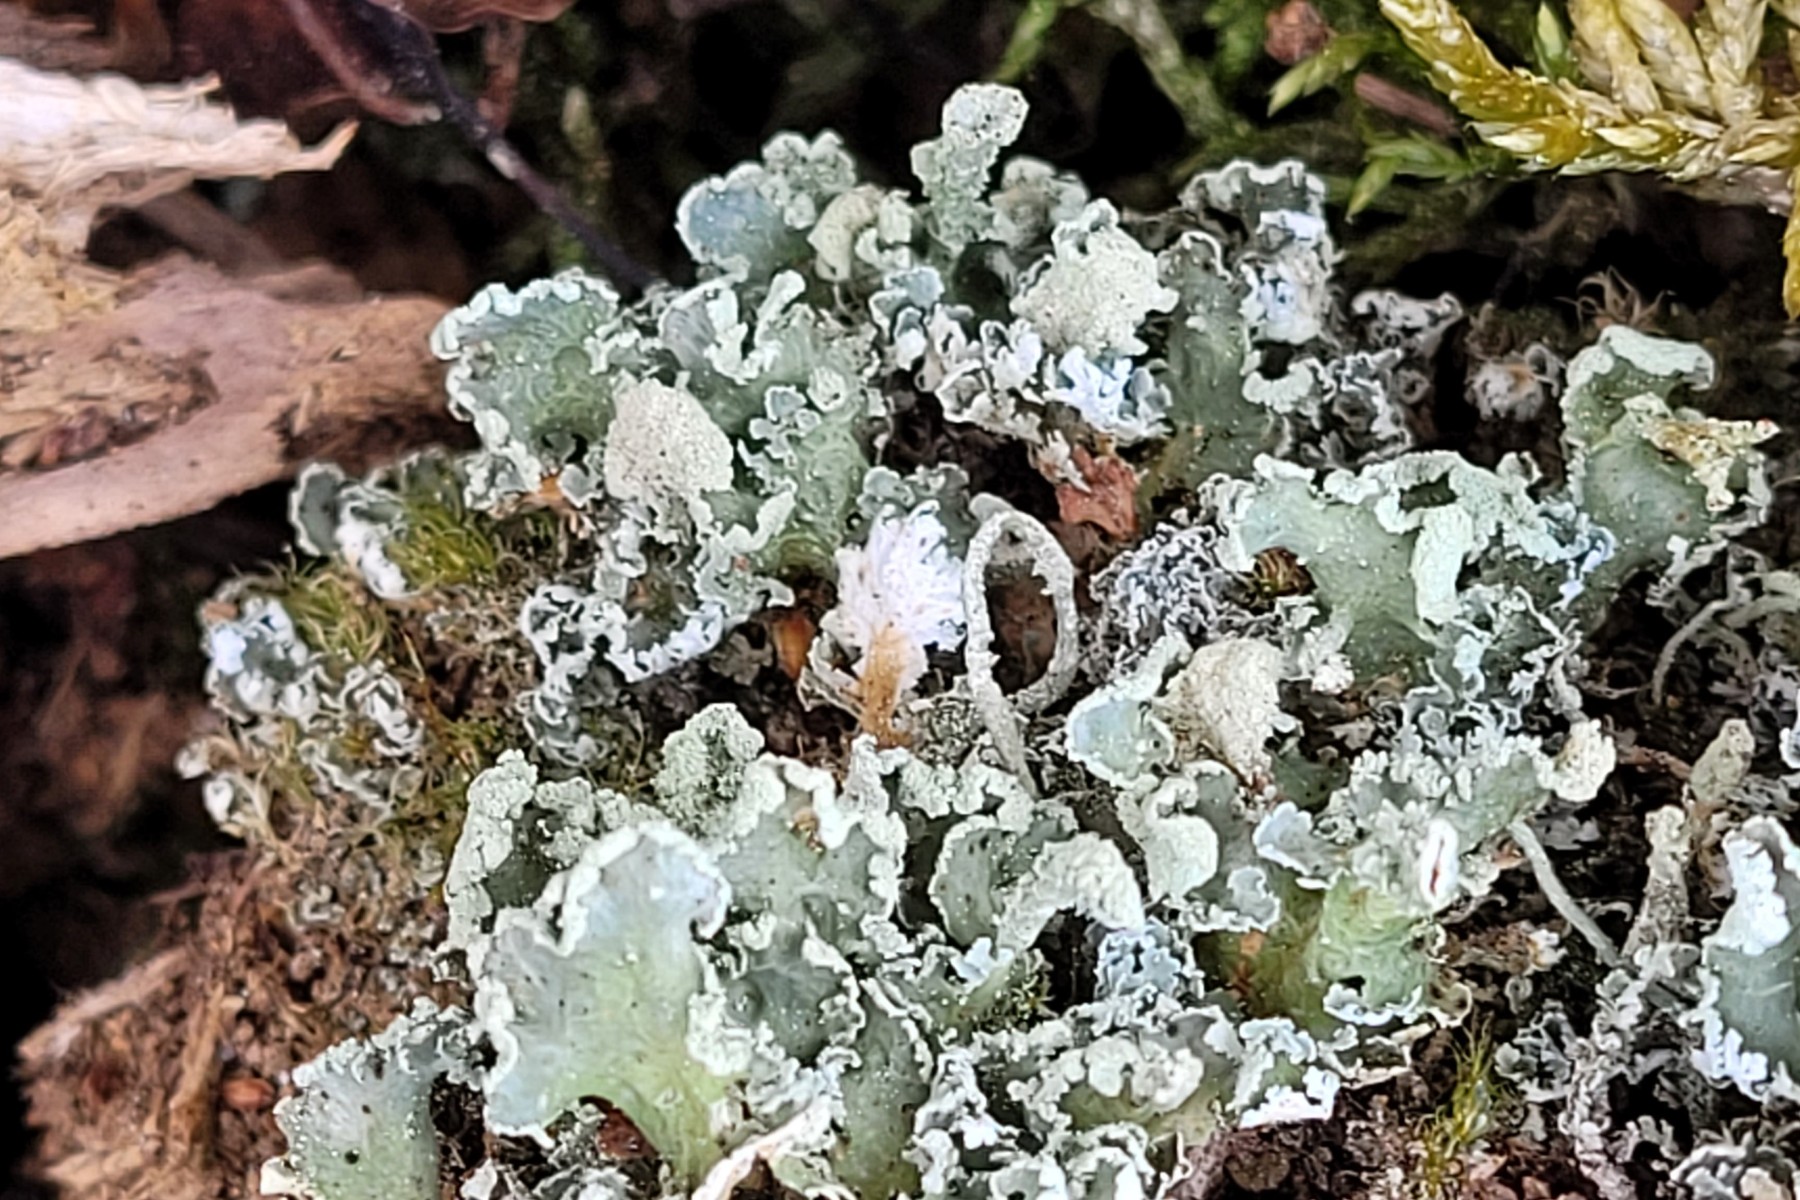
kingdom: Fungi
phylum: Ascomycota
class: Lecanoromycetes
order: Lecanorales
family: Cladoniaceae
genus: Cladonia
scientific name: Cladonia digitata
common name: finger-bægerlav
